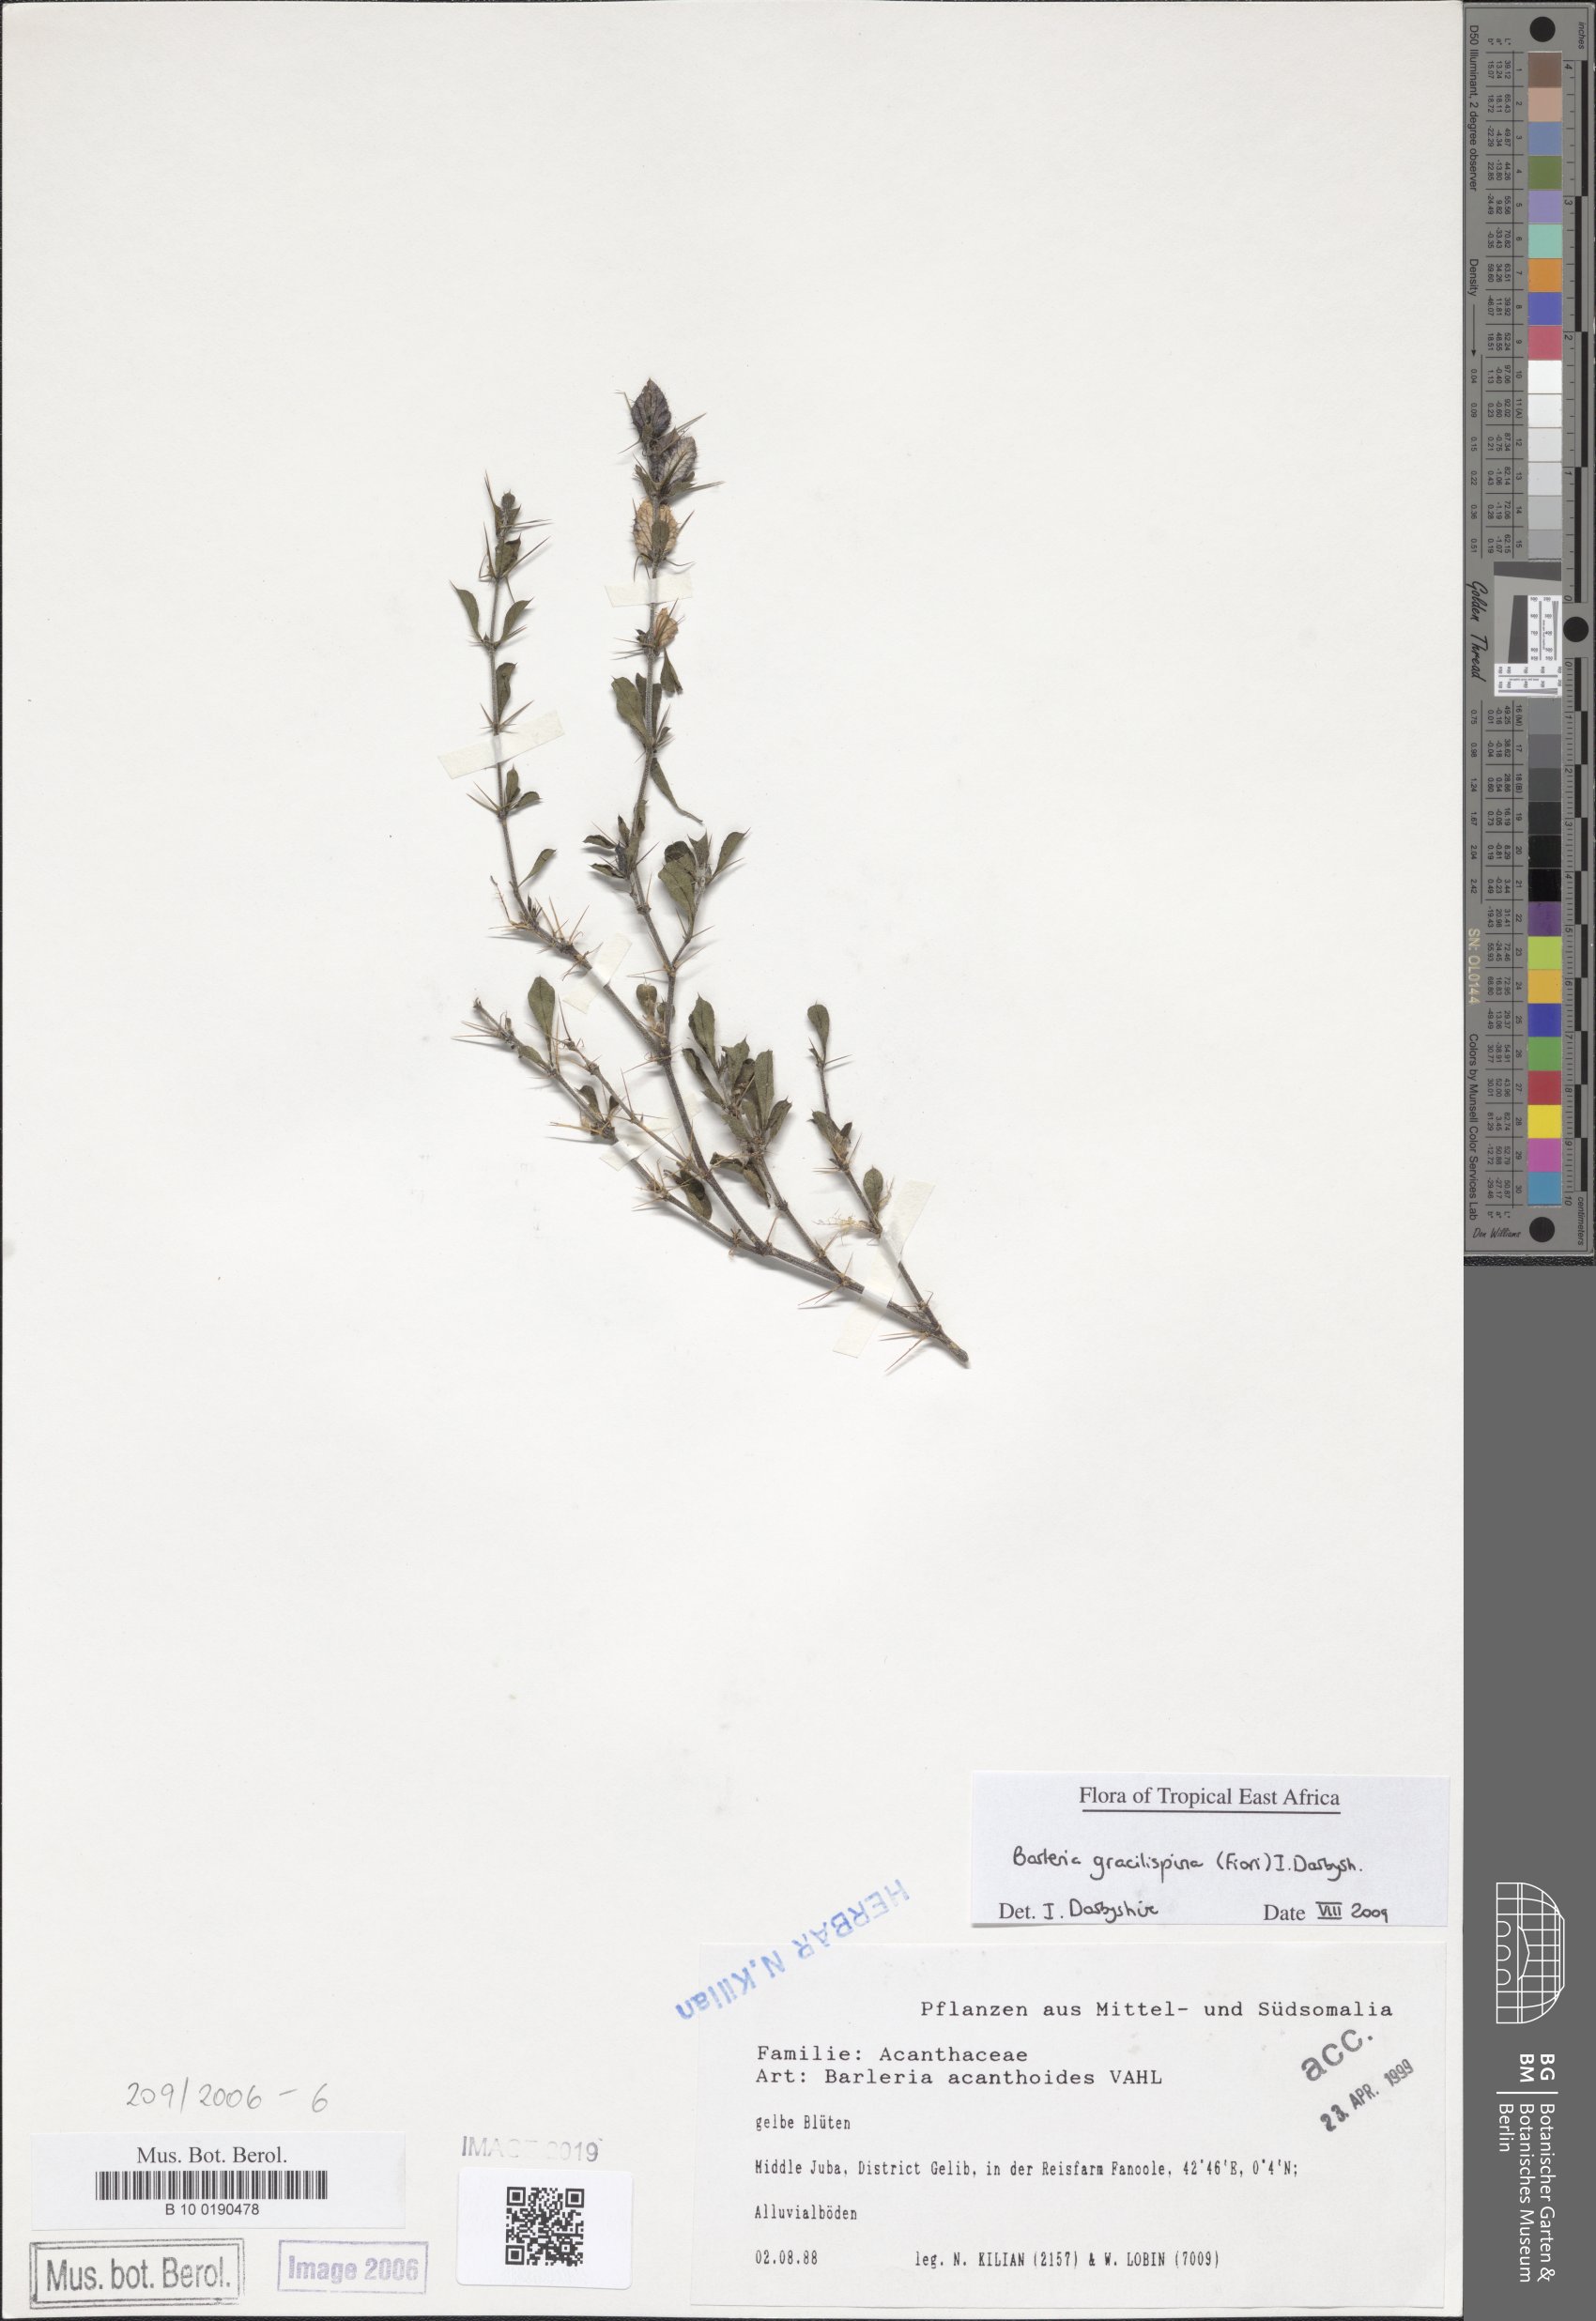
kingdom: Plantae
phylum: Tracheophyta
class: Magnoliopsida
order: Lamiales
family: Acanthaceae
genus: Barleria
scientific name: Barleria gracilispina
